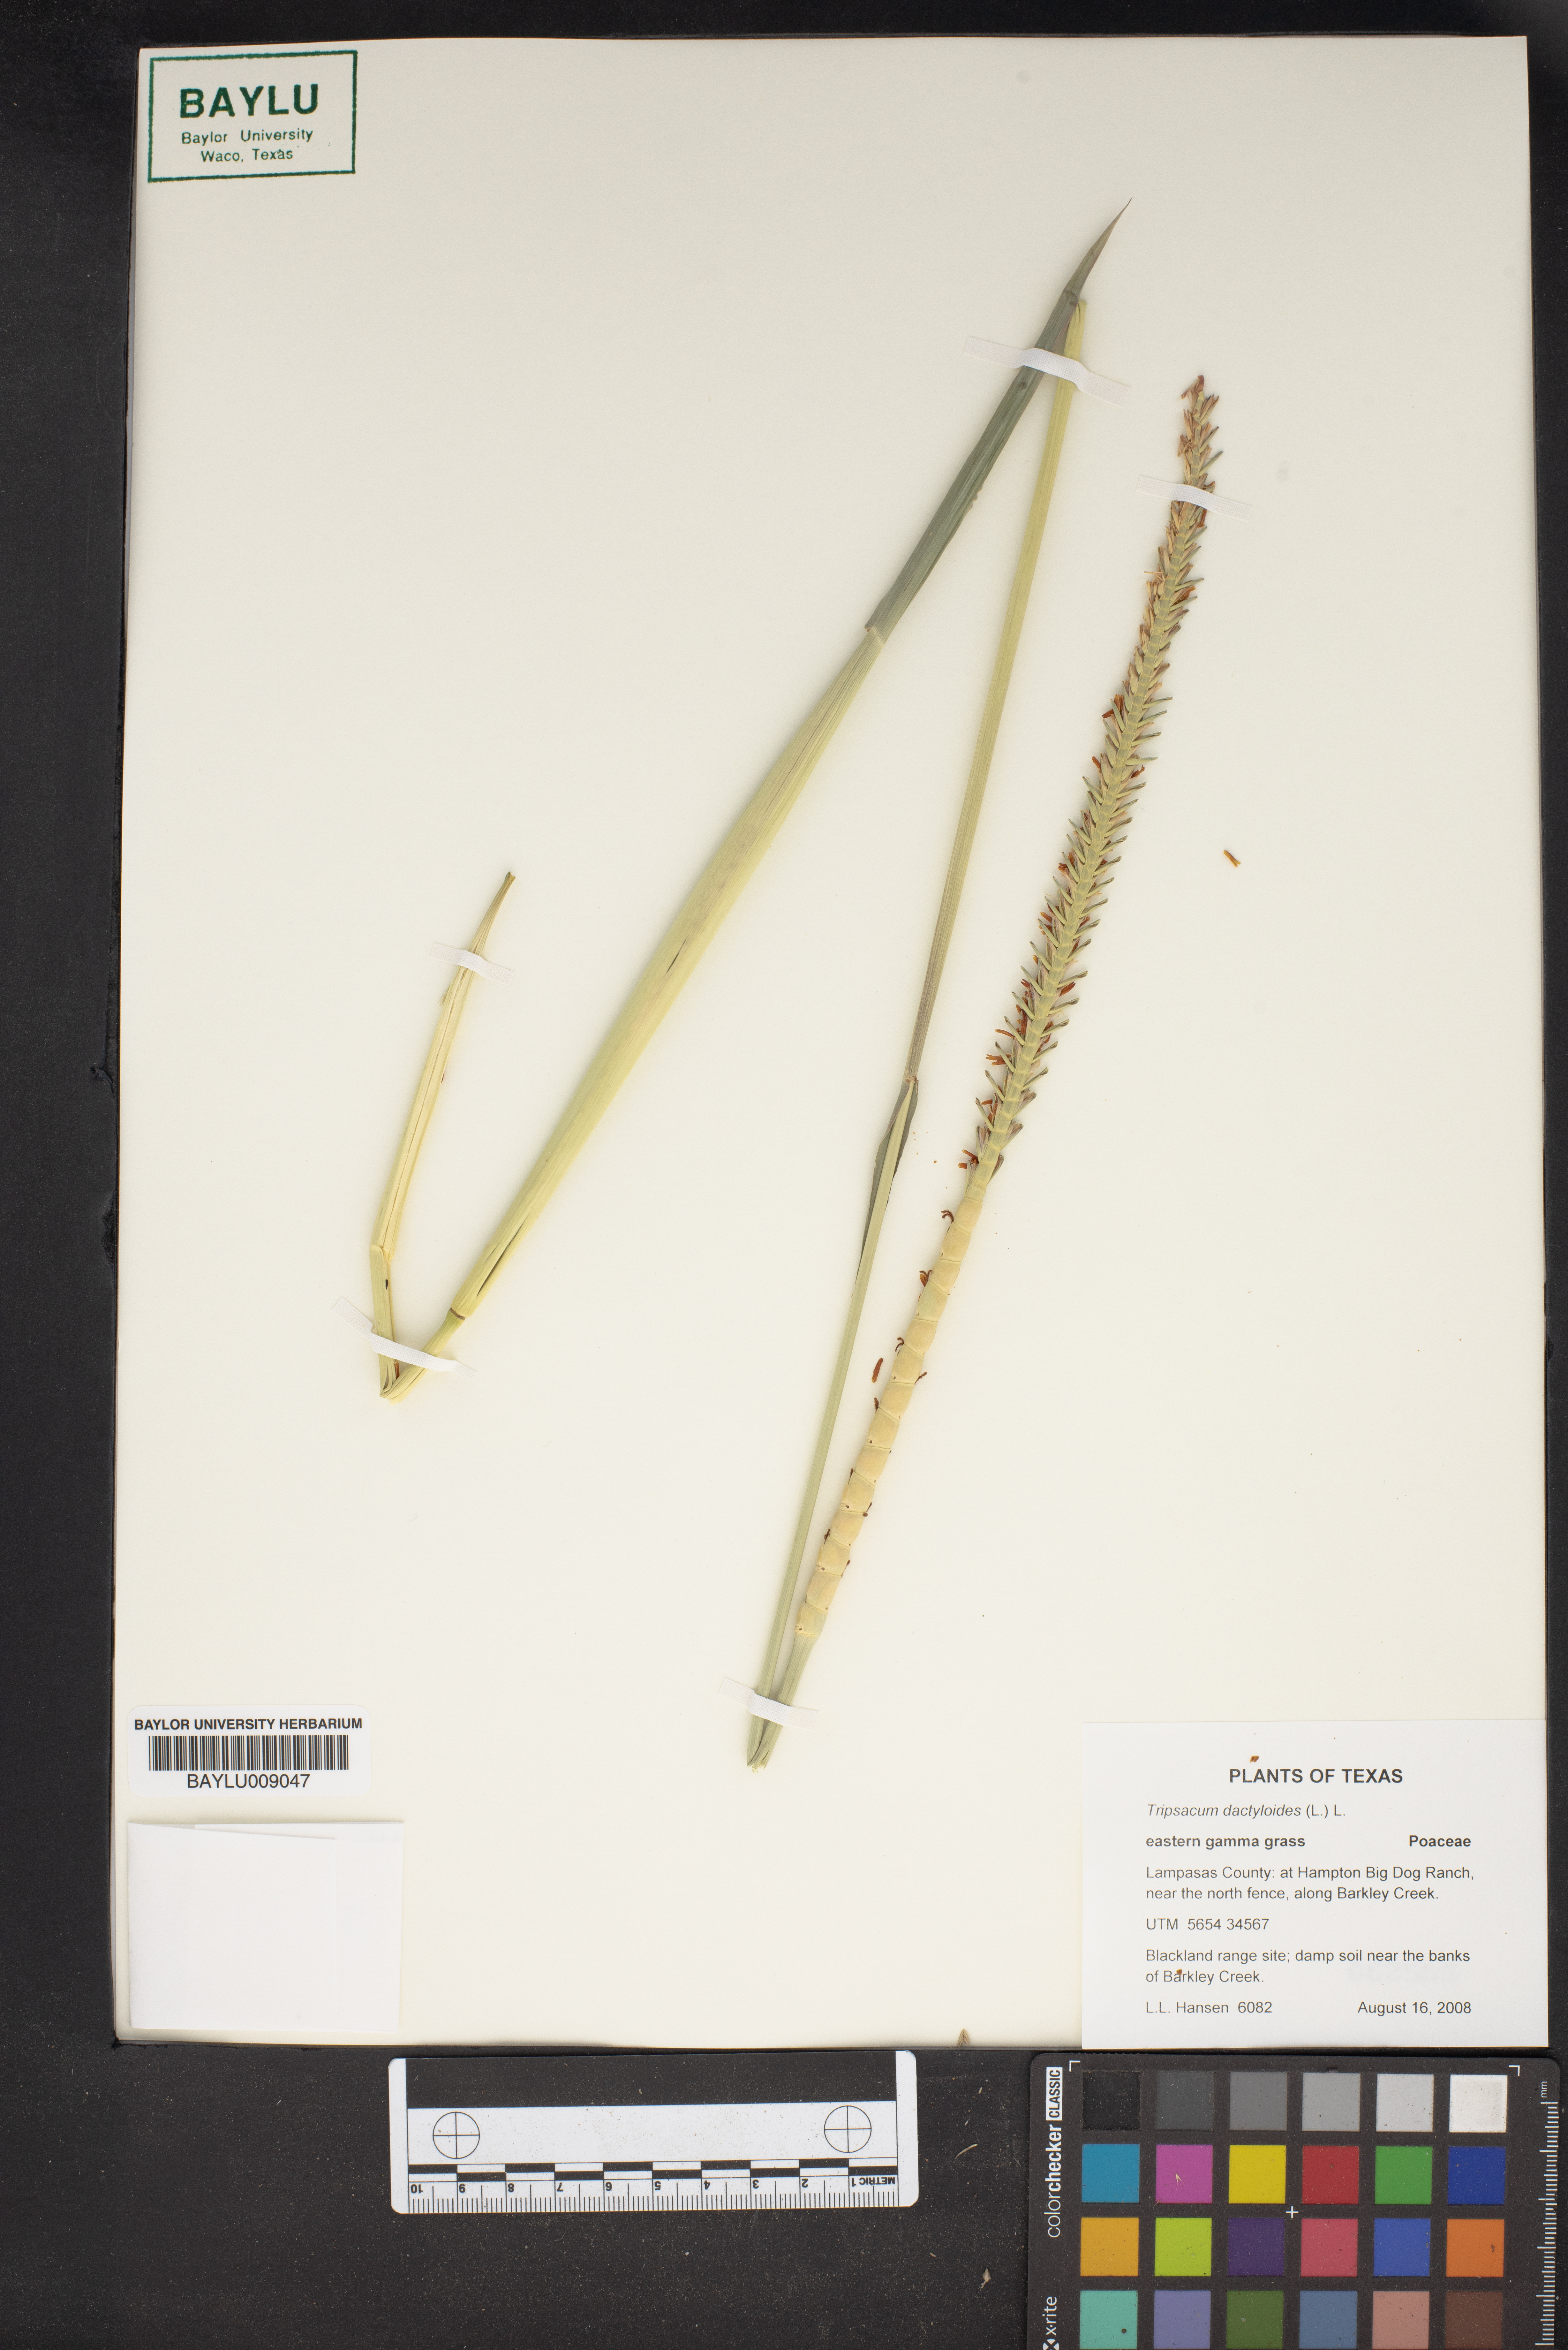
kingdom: Plantae
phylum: Tracheophyta
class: Liliopsida
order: Poales
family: Poaceae
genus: Tripsacum
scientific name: Tripsacum dactyloides
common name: Buffalo-grass
